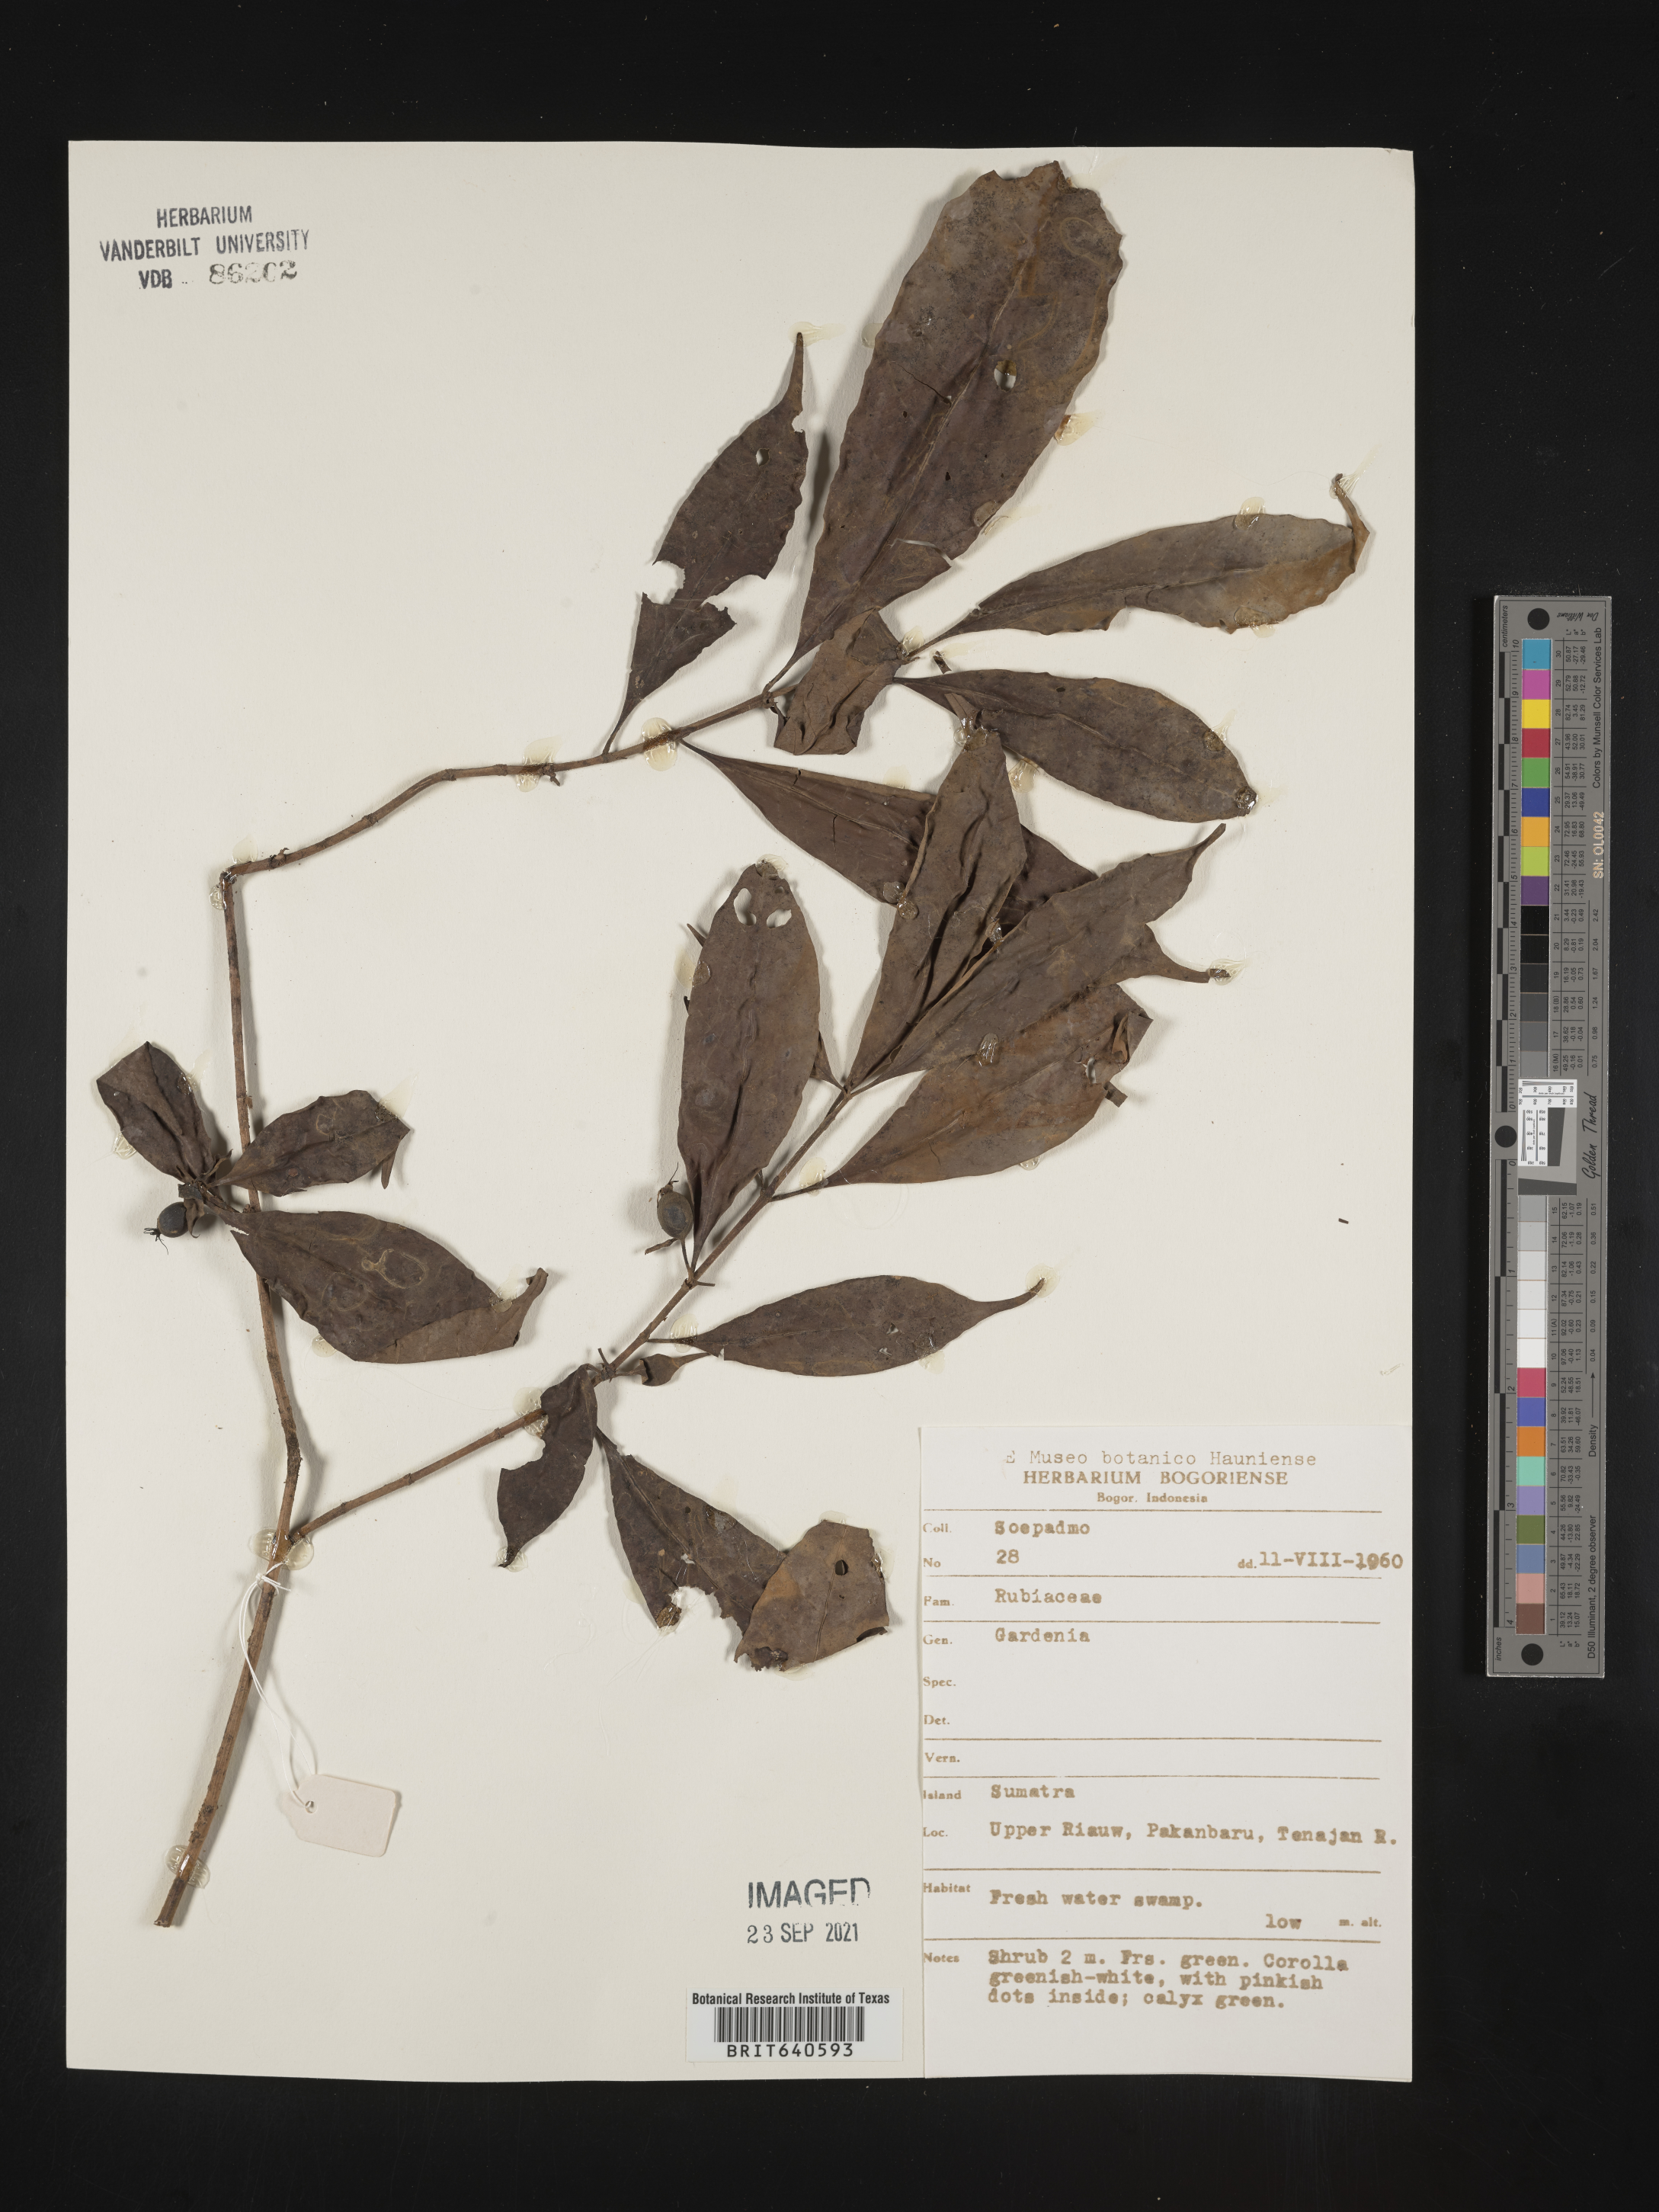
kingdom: Plantae
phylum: Tracheophyta
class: Magnoliopsida
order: Gentianales
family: Rubiaceae
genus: Gardenia
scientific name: Gardenia
